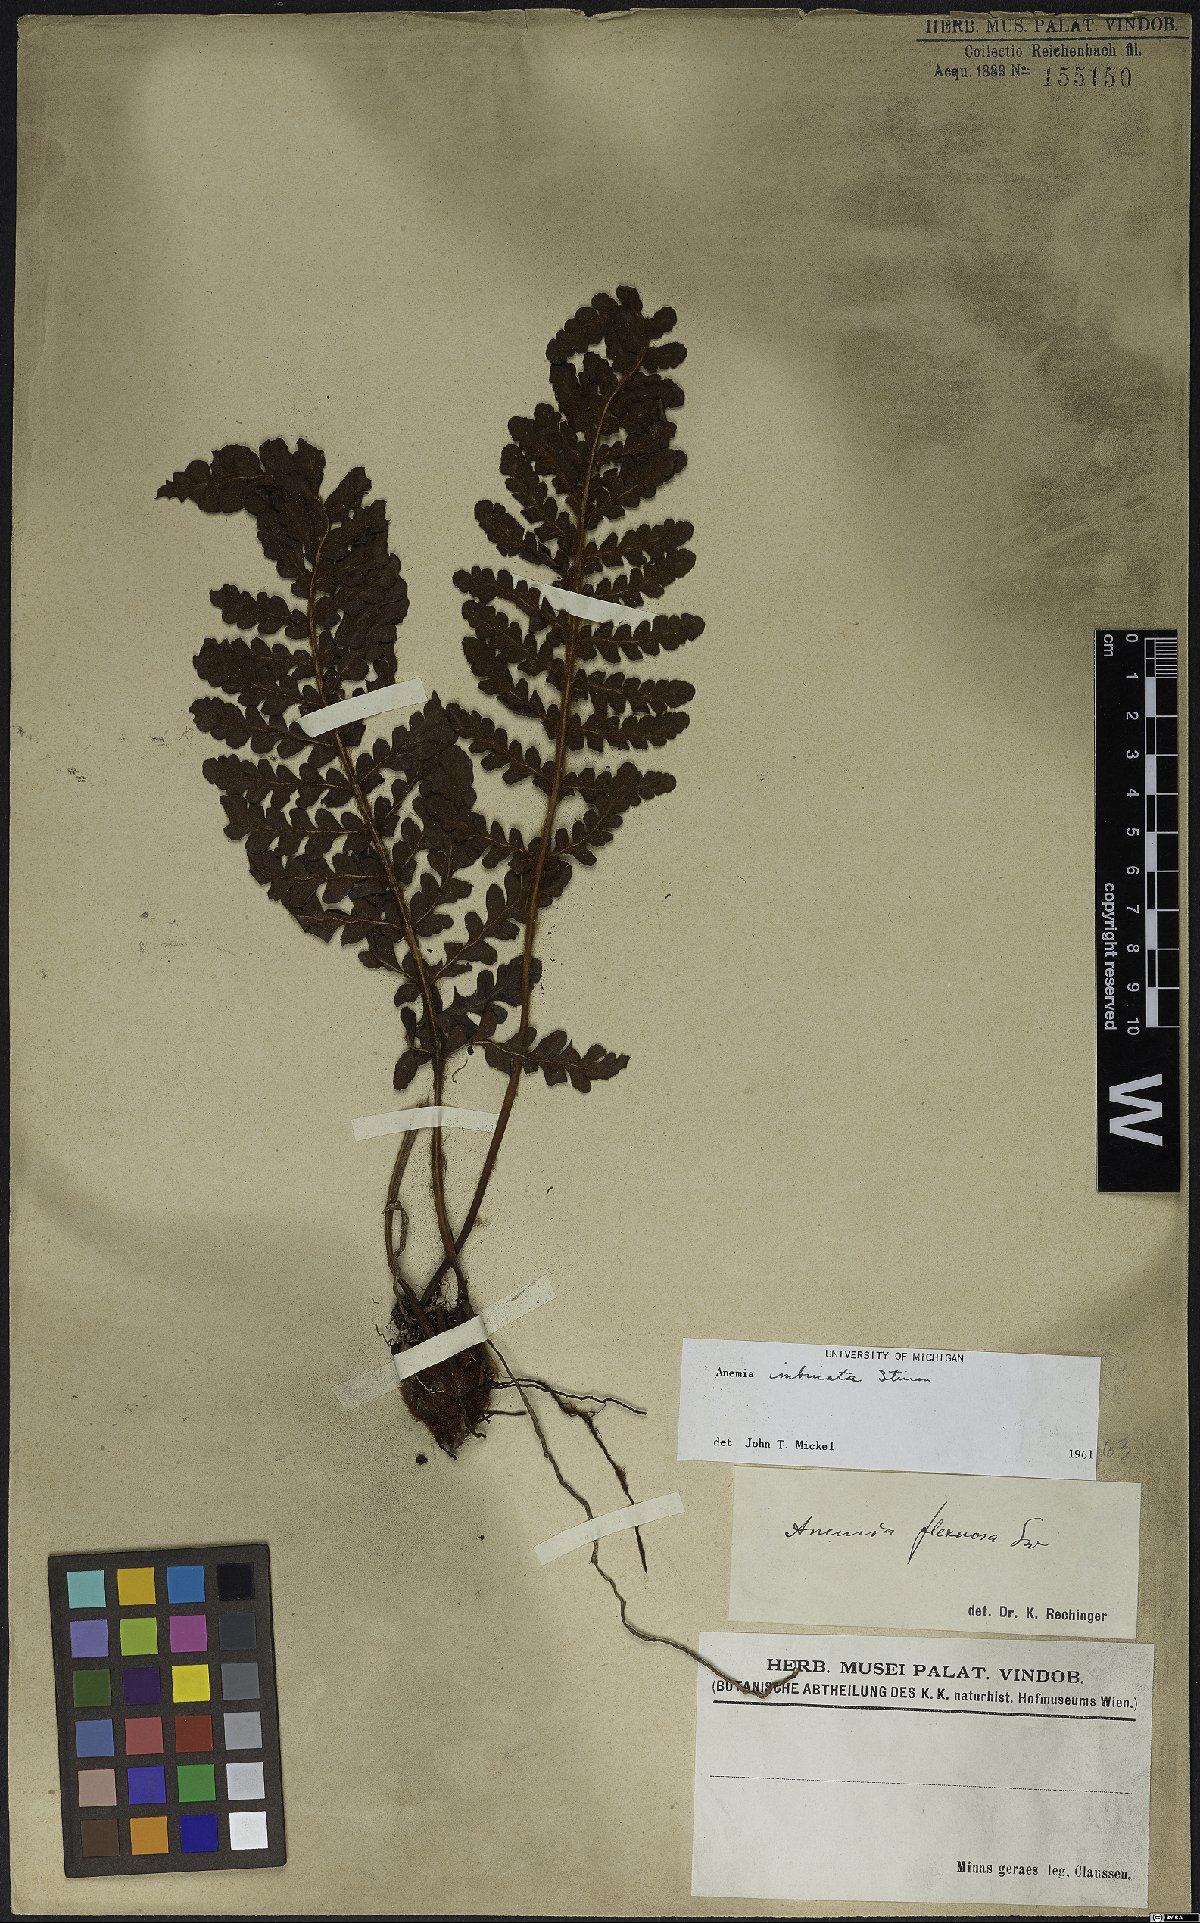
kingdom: Plantae
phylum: Tracheophyta
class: Polypodiopsida
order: Schizaeales
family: Anemiaceae
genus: Anemia
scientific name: Anemia imbricata
